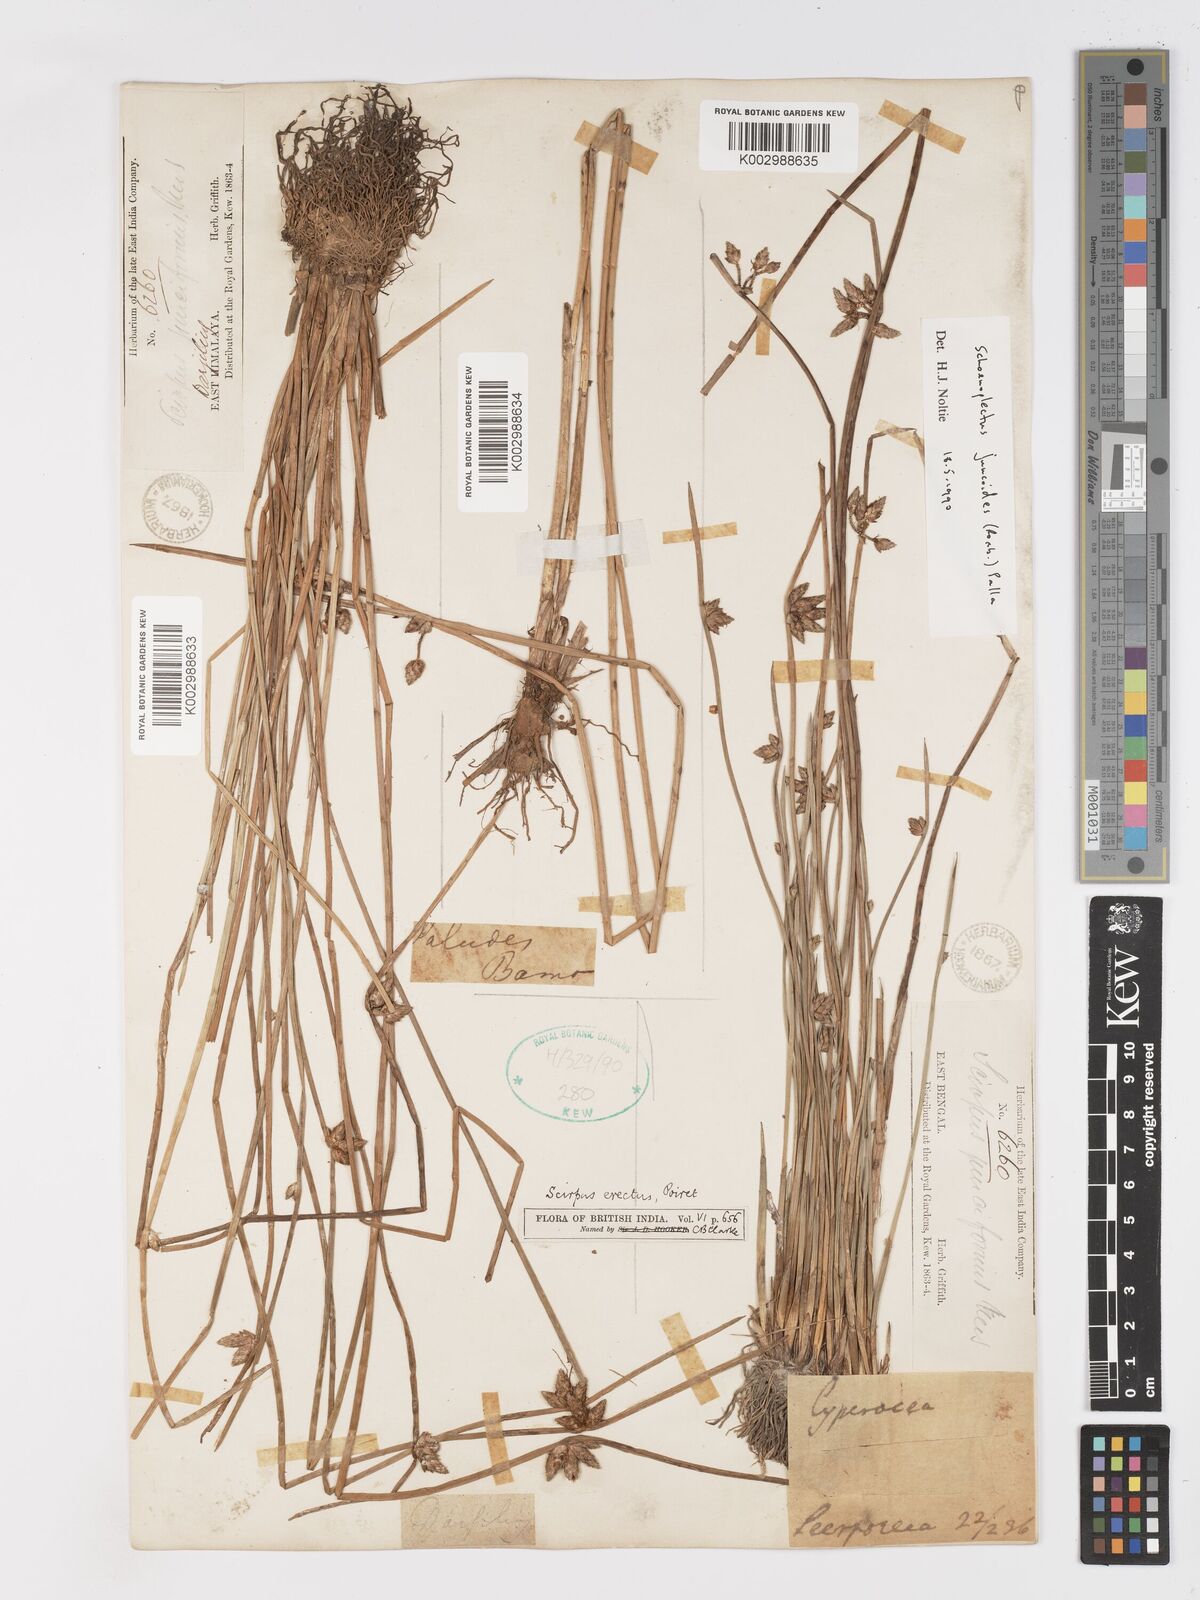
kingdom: Plantae
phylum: Tracheophyta
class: Liliopsida
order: Poales
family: Cyperaceae
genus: Schoenoplectiella
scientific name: Schoenoplectiella juncoides
